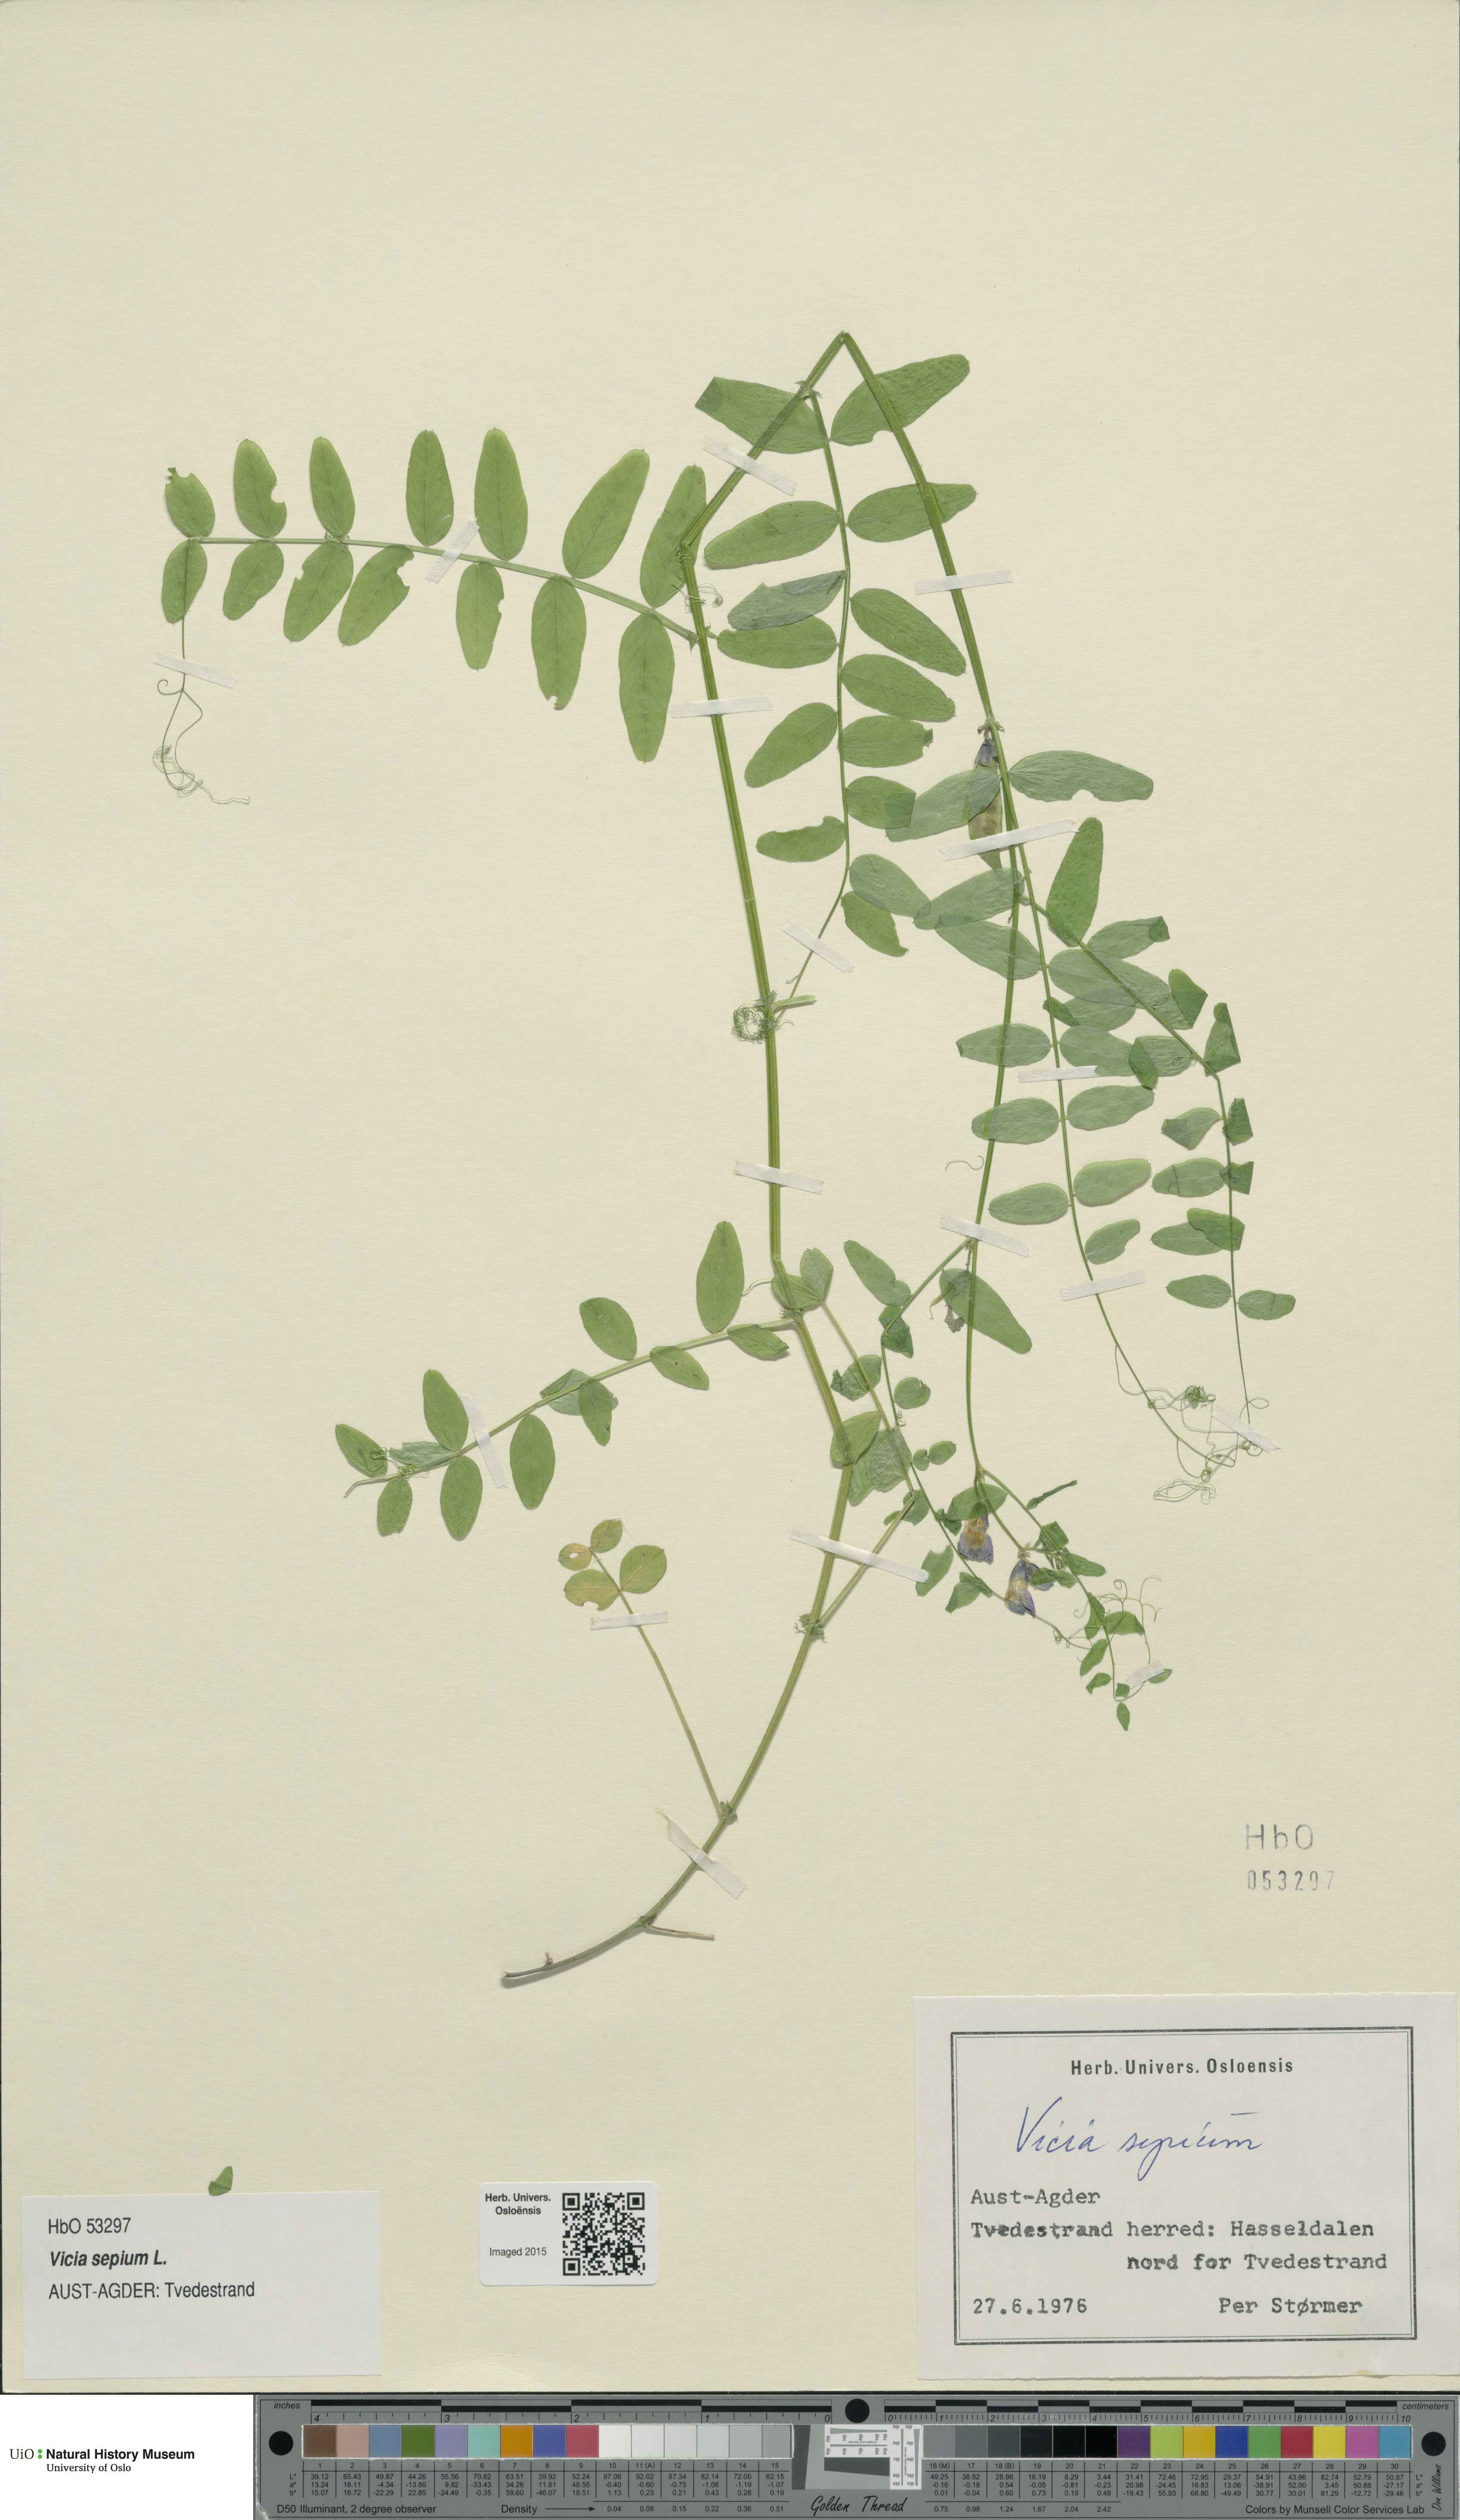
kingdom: Plantae
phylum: Tracheophyta
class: Magnoliopsida
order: Fabales
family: Fabaceae
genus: Vicia
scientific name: Vicia sepium
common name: Bush vetch
